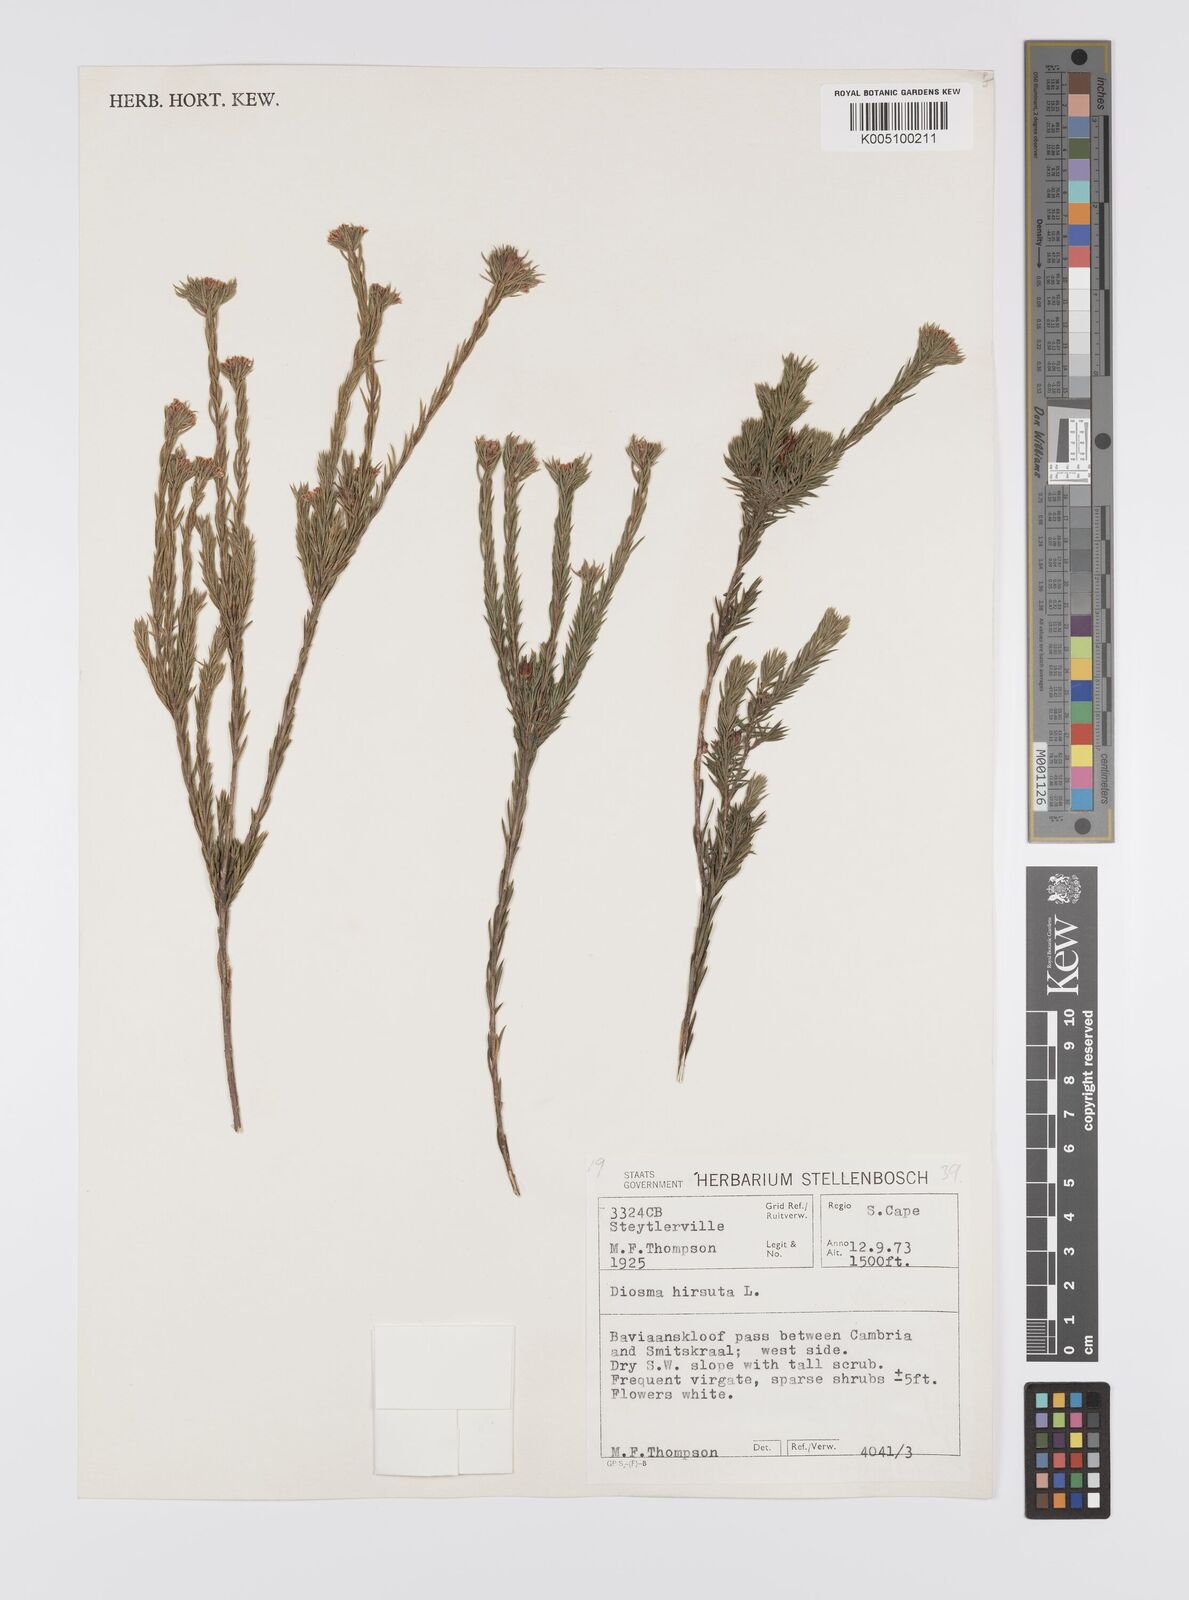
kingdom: Plantae
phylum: Tracheophyta
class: Magnoliopsida
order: Sapindales
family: Rutaceae
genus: Diosma
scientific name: Diosma hirsuta
